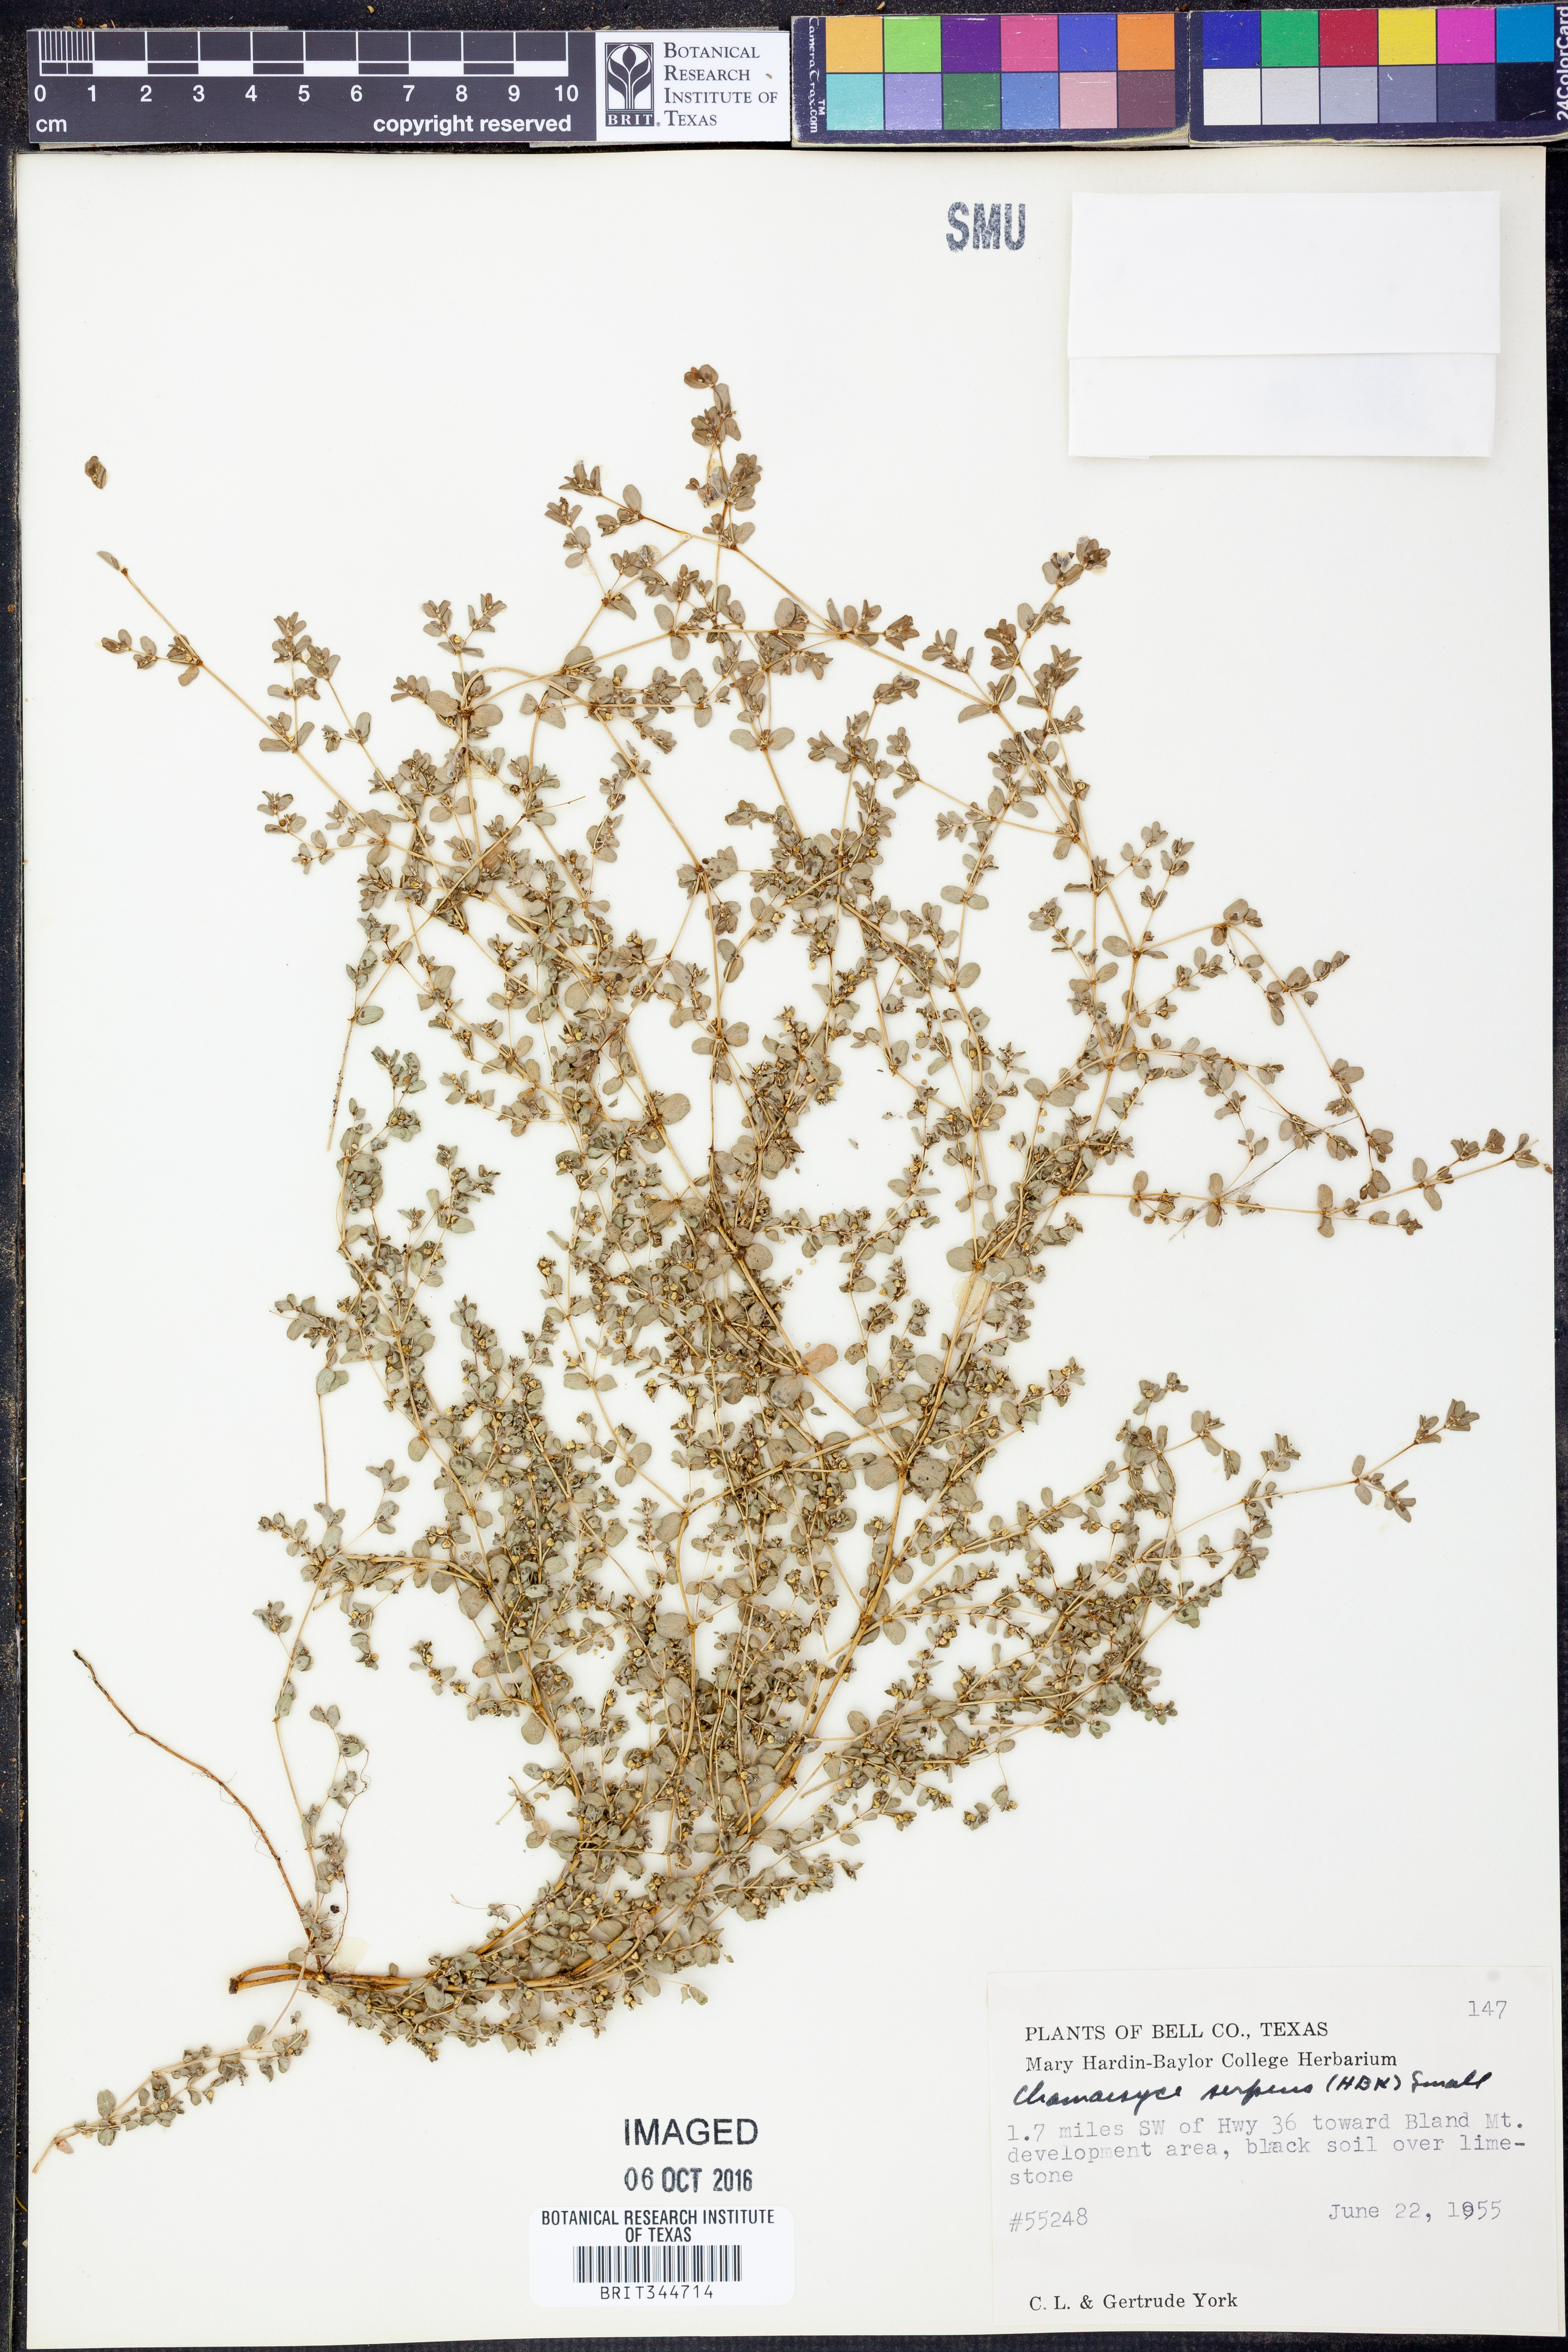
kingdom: Plantae
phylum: Tracheophyta
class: Magnoliopsida
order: Malpighiales
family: Euphorbiaceae
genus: Euphorbia
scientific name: Euphorbia serpens
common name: Matted sandmat
